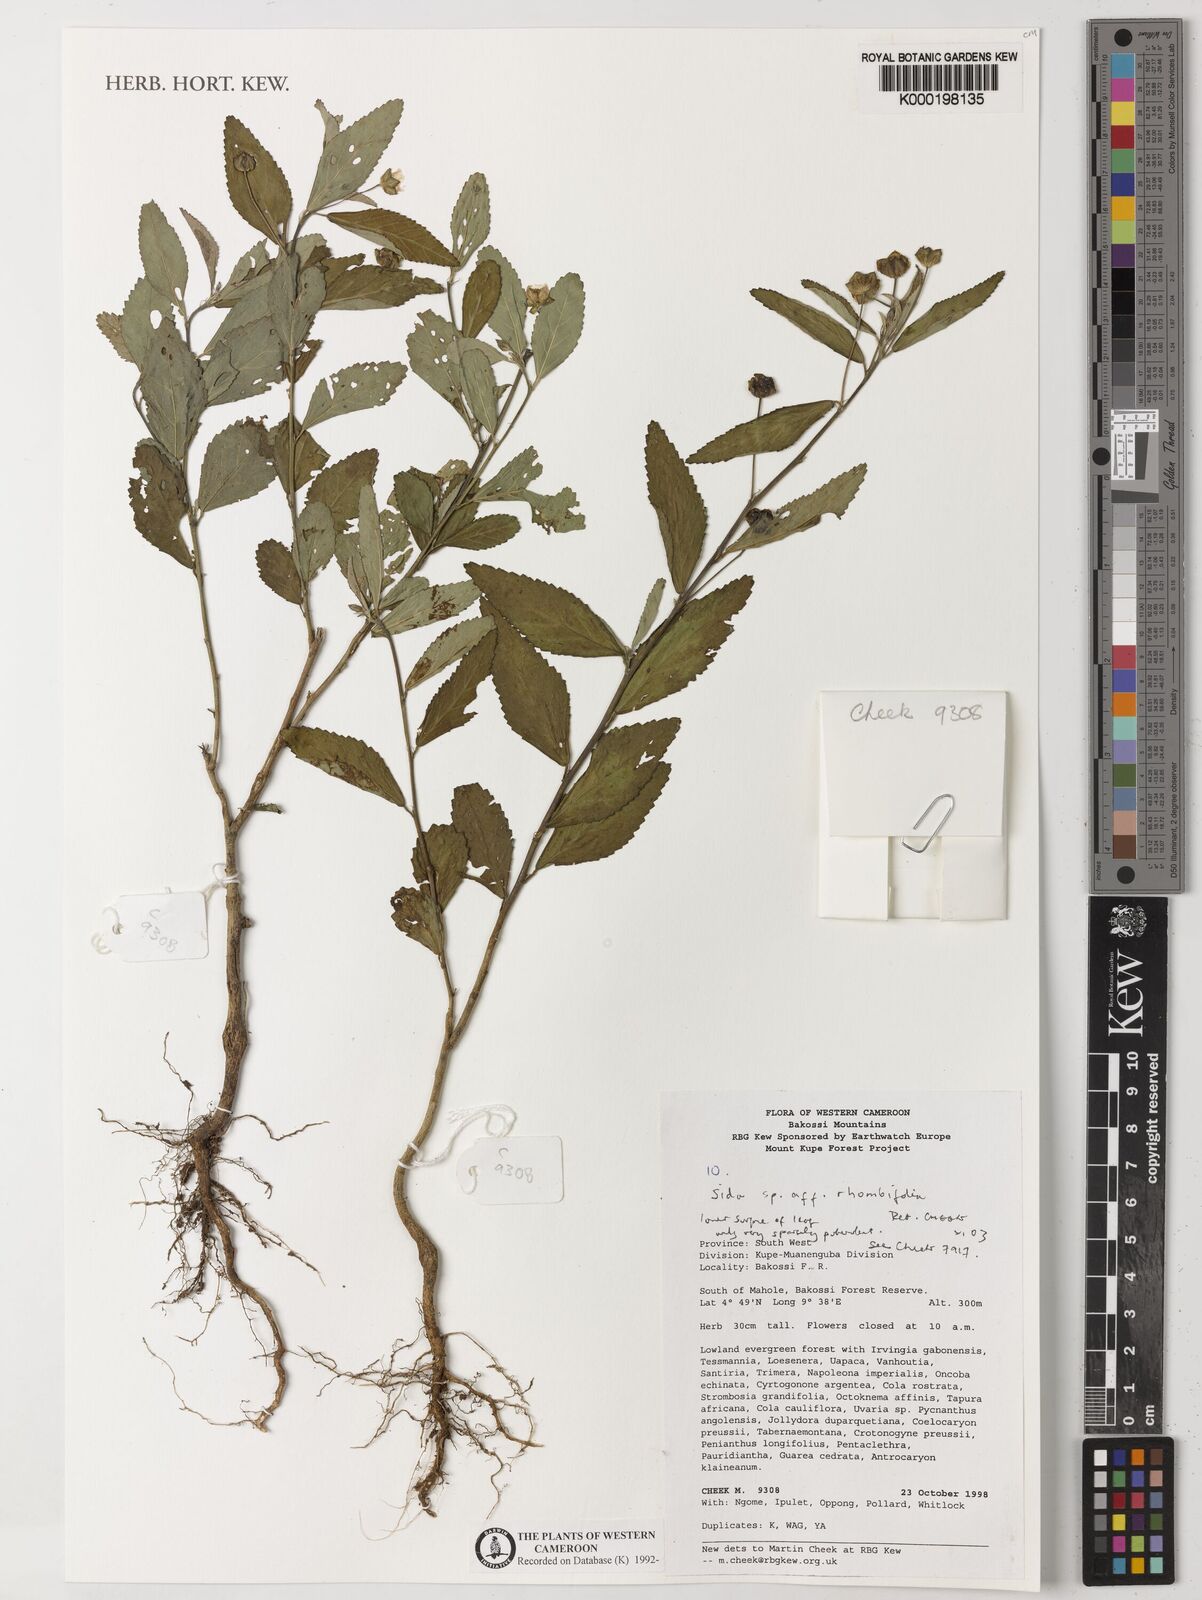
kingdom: Plantae
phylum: Tracheophyta
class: Magnoliopsida
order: Malvales
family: Malvaceae
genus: Sida
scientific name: Sida rhombifolia
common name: Queensland-hemp
